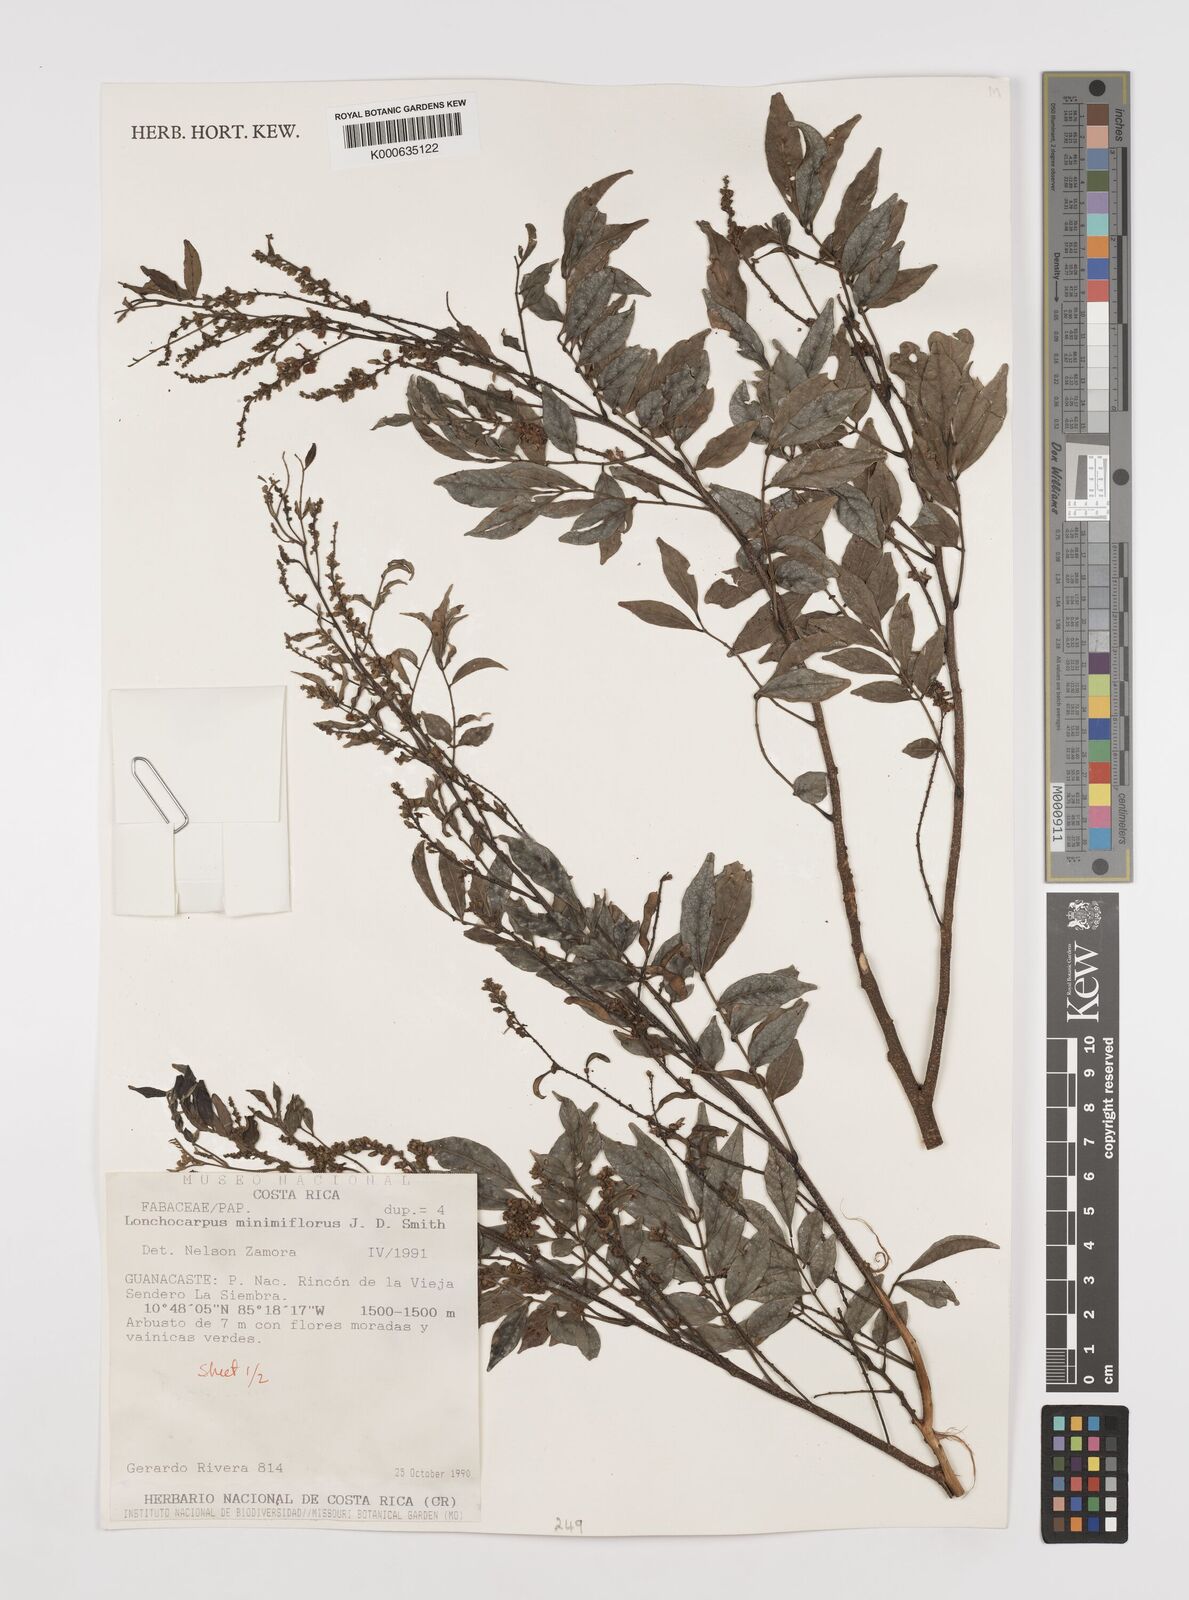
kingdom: Plantae
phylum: Tracheophyta
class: Magnoliopsida
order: Fabales
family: Fabaceae
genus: Lonchocarpus
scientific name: Lonchocarpus
